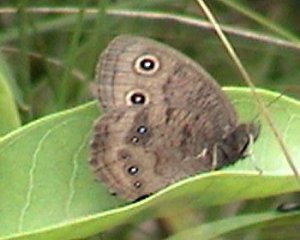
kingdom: Animalia
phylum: Arthropoda
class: Insecta
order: Lepidoptera
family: Nymphalidae
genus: Cercyonis
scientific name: Cercyonis pegala
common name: Common Wood-Nymph
